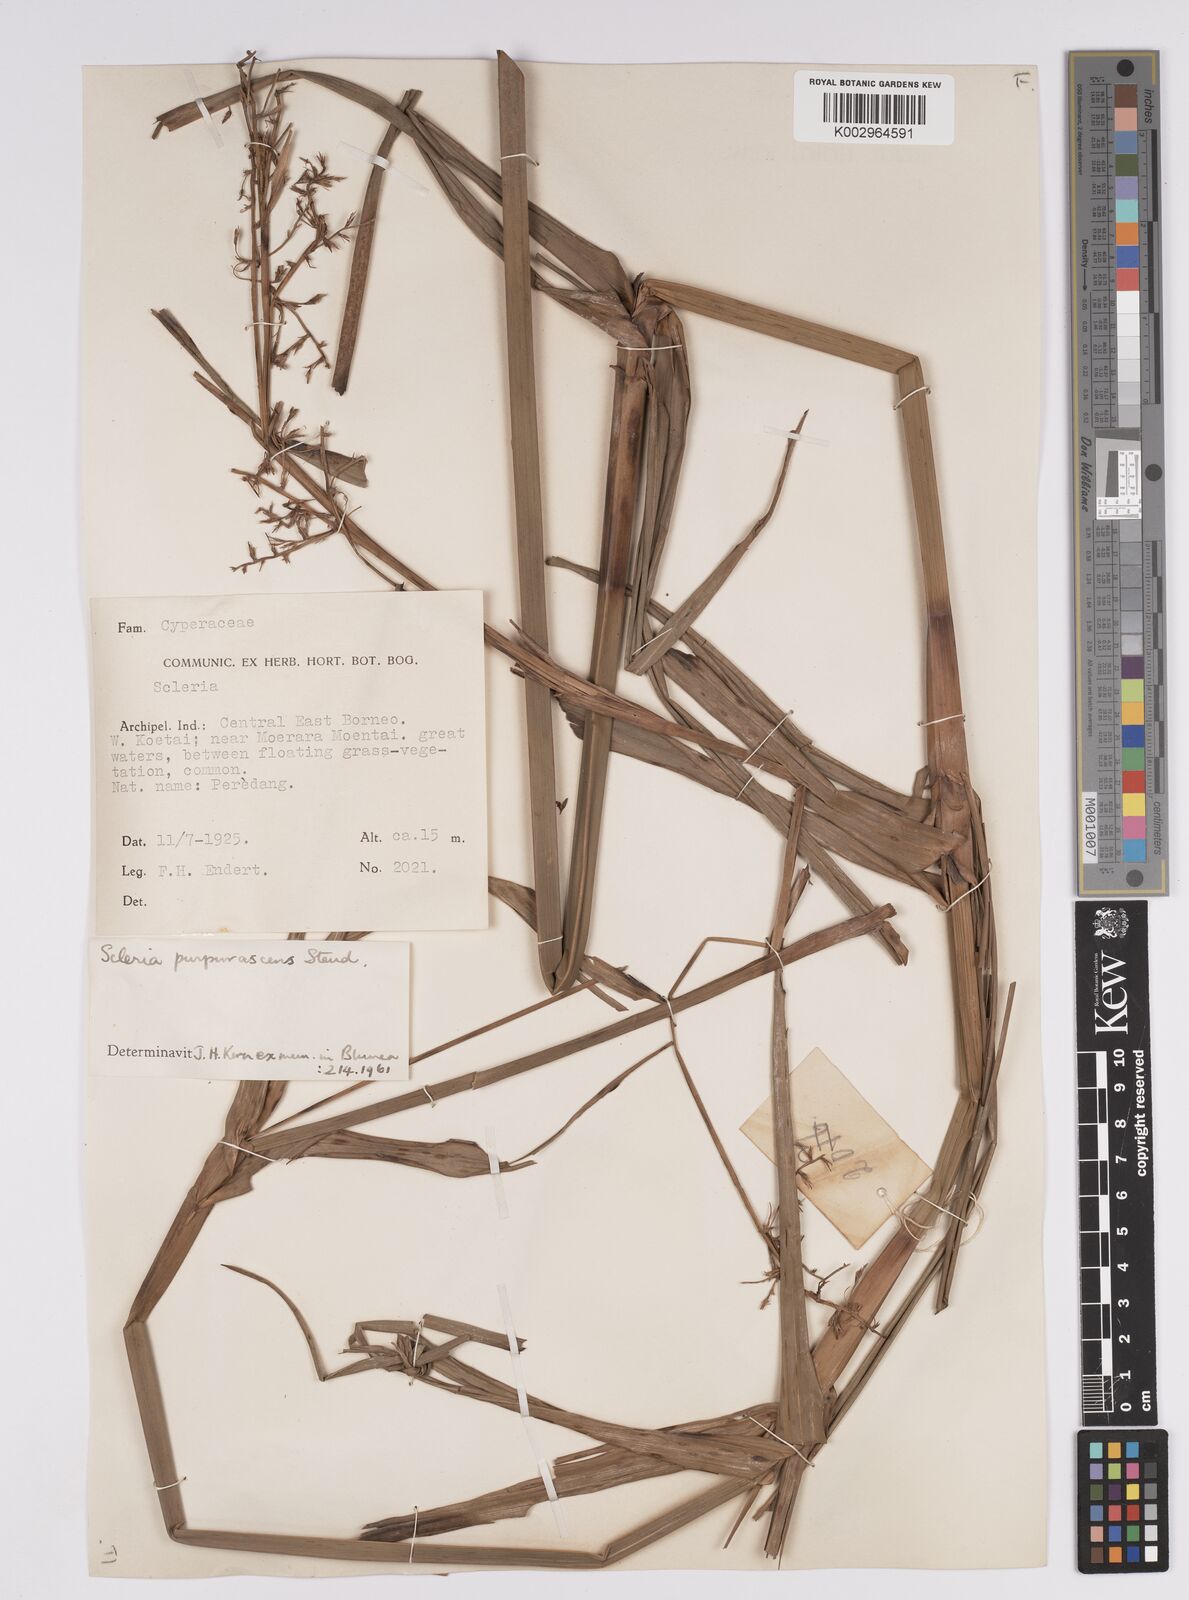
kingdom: Plantae
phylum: Tracheophyta
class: Liliopsida
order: Poales
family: Cyperaceae
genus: Scleria
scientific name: Scleria purpurascens
